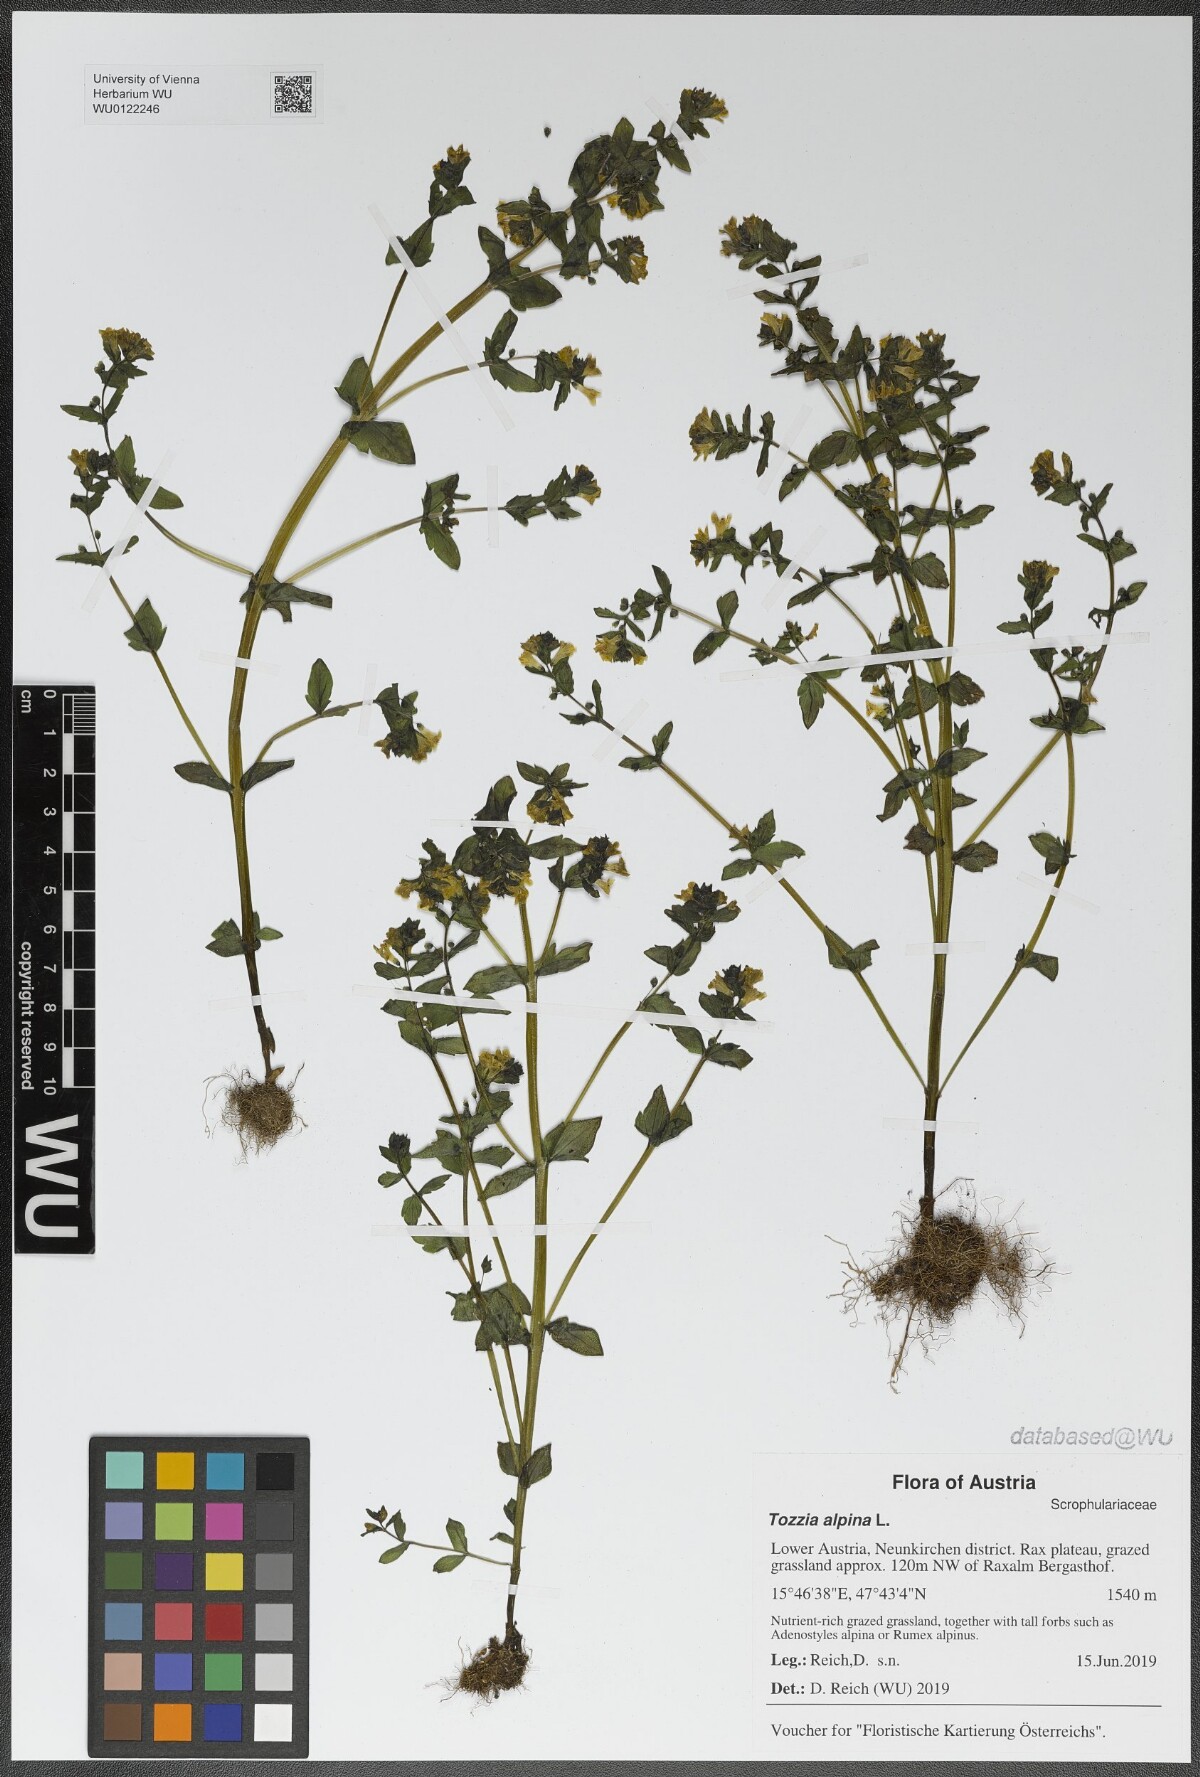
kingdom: Plantae
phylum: Tracheophyta
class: Magnoliopsida
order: Lamiales
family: Orobanchaceae
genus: Tozzia
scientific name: Tozzia alpina
